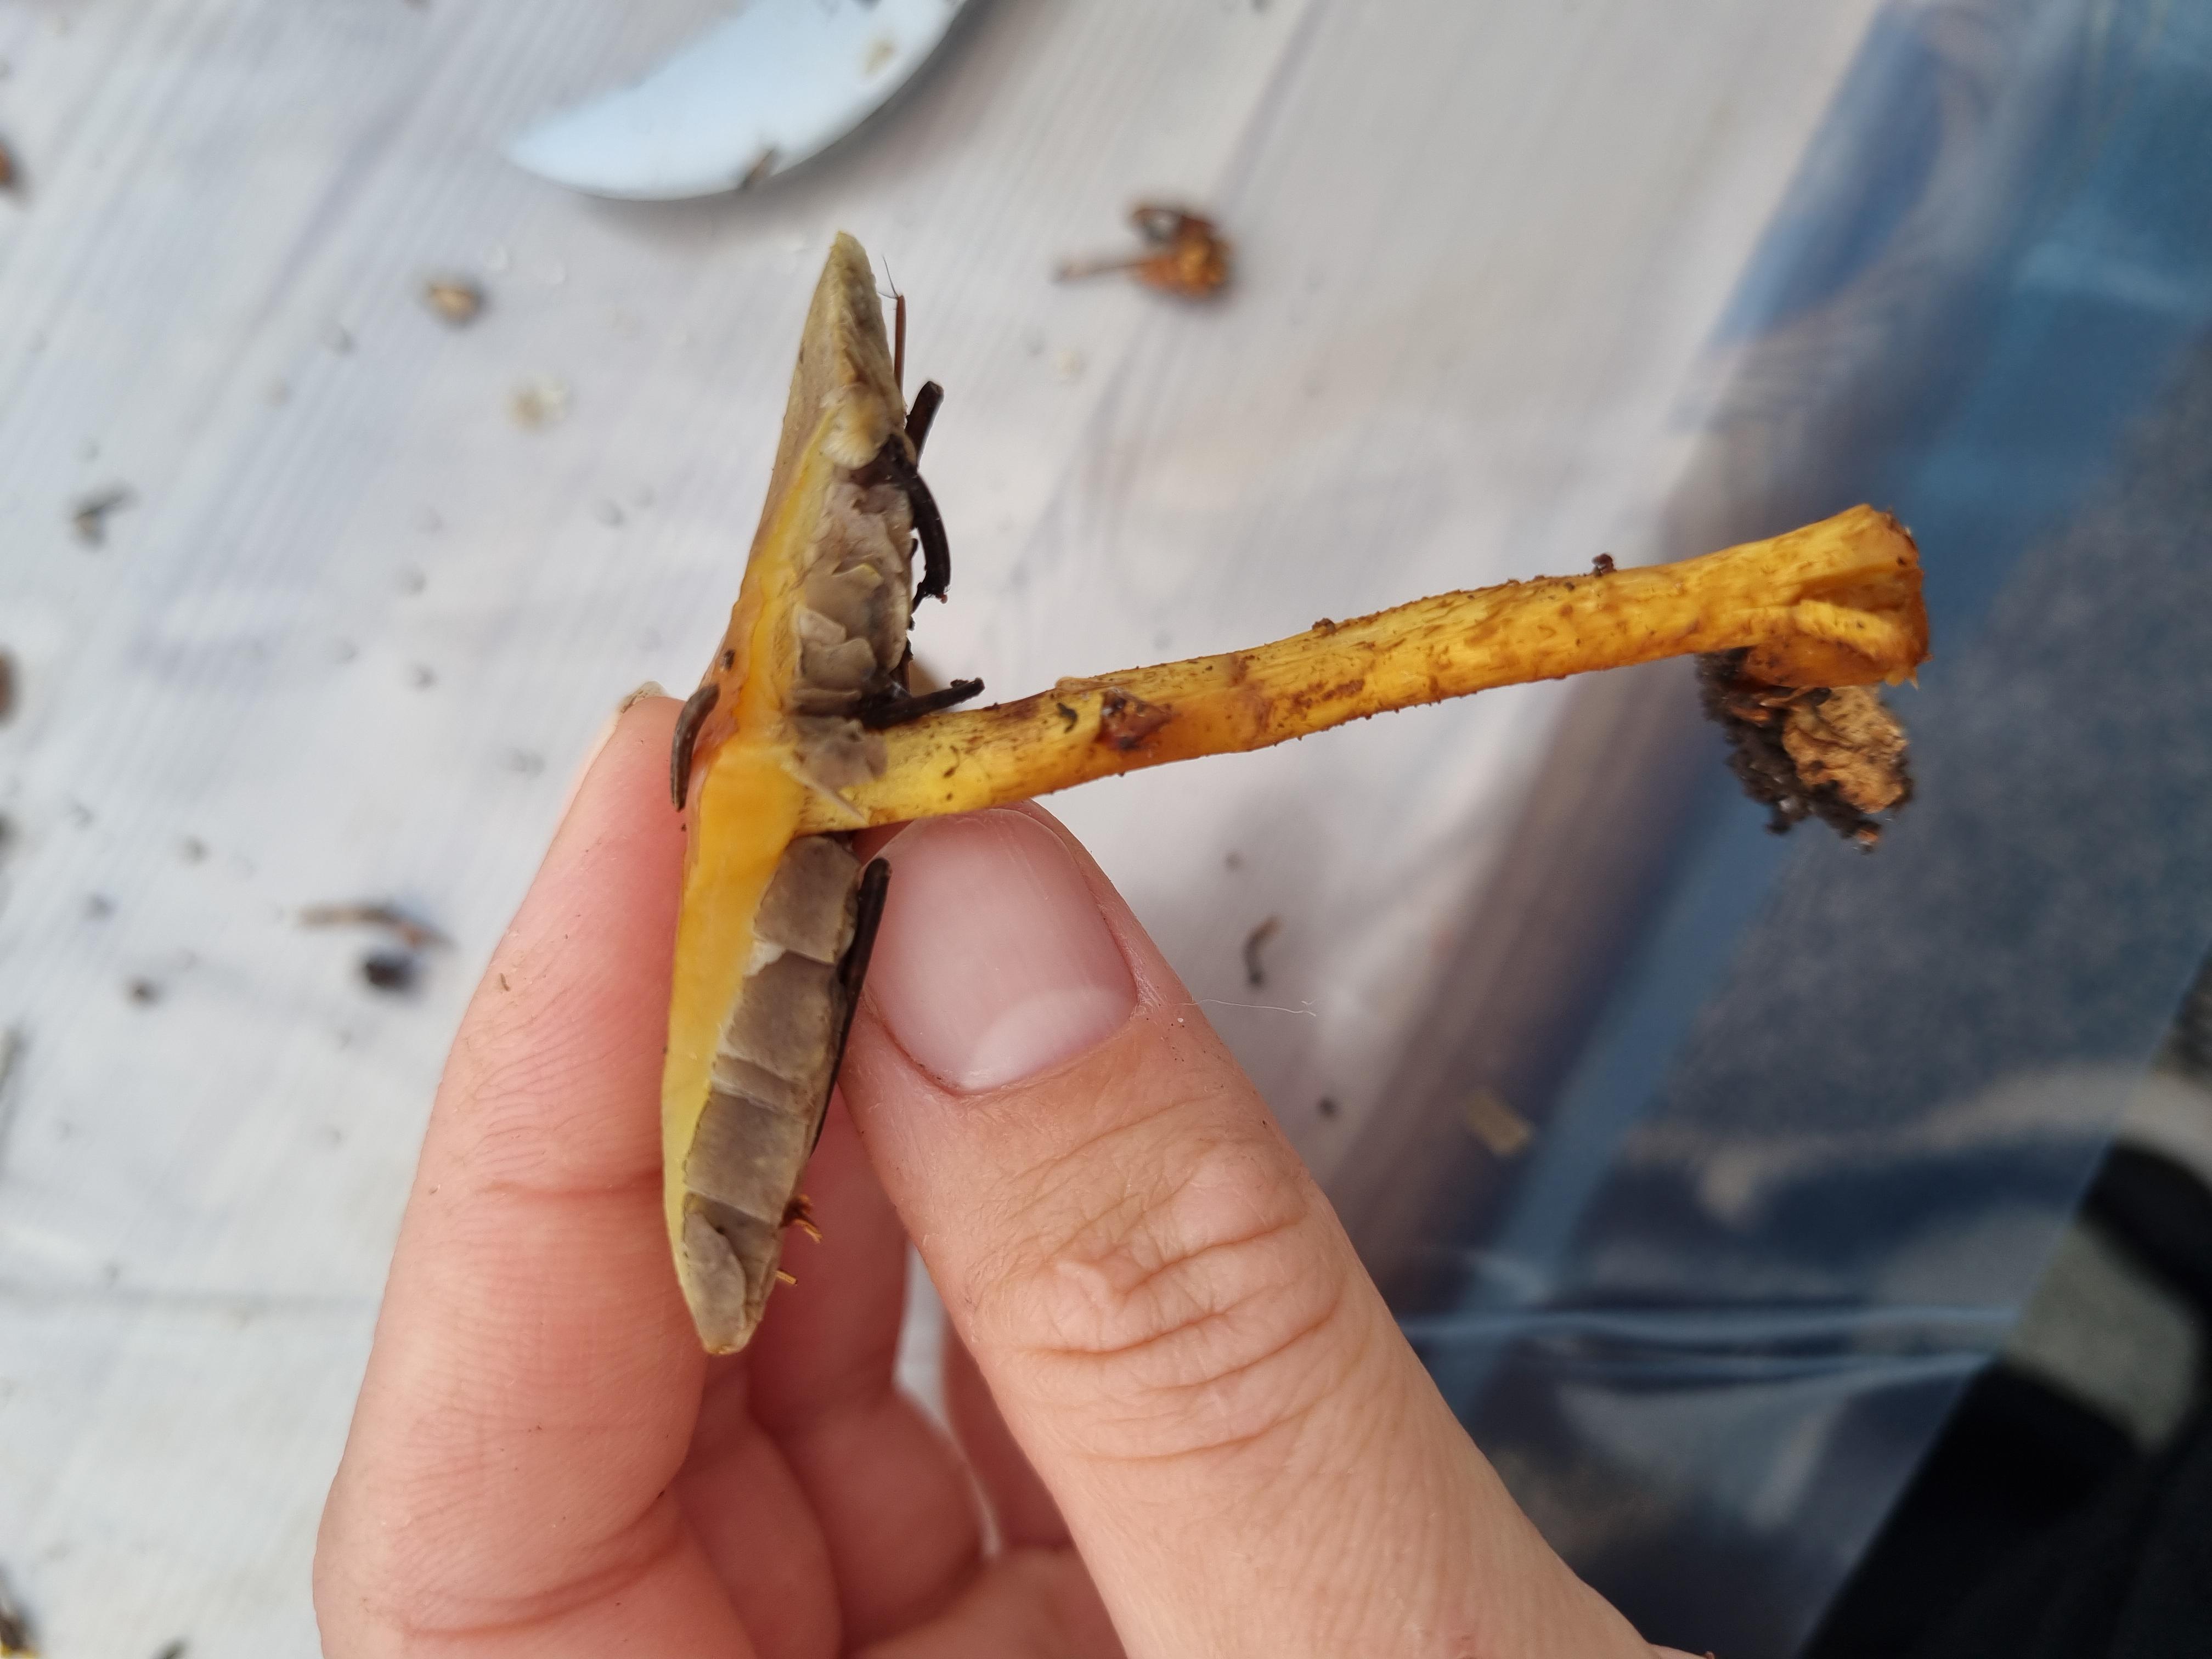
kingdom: Fungi
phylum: Basidiomycota
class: Agaricomycetes
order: Agaricales
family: Strophariaceae
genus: Hypholoma
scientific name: Hypholoma fasciculare
